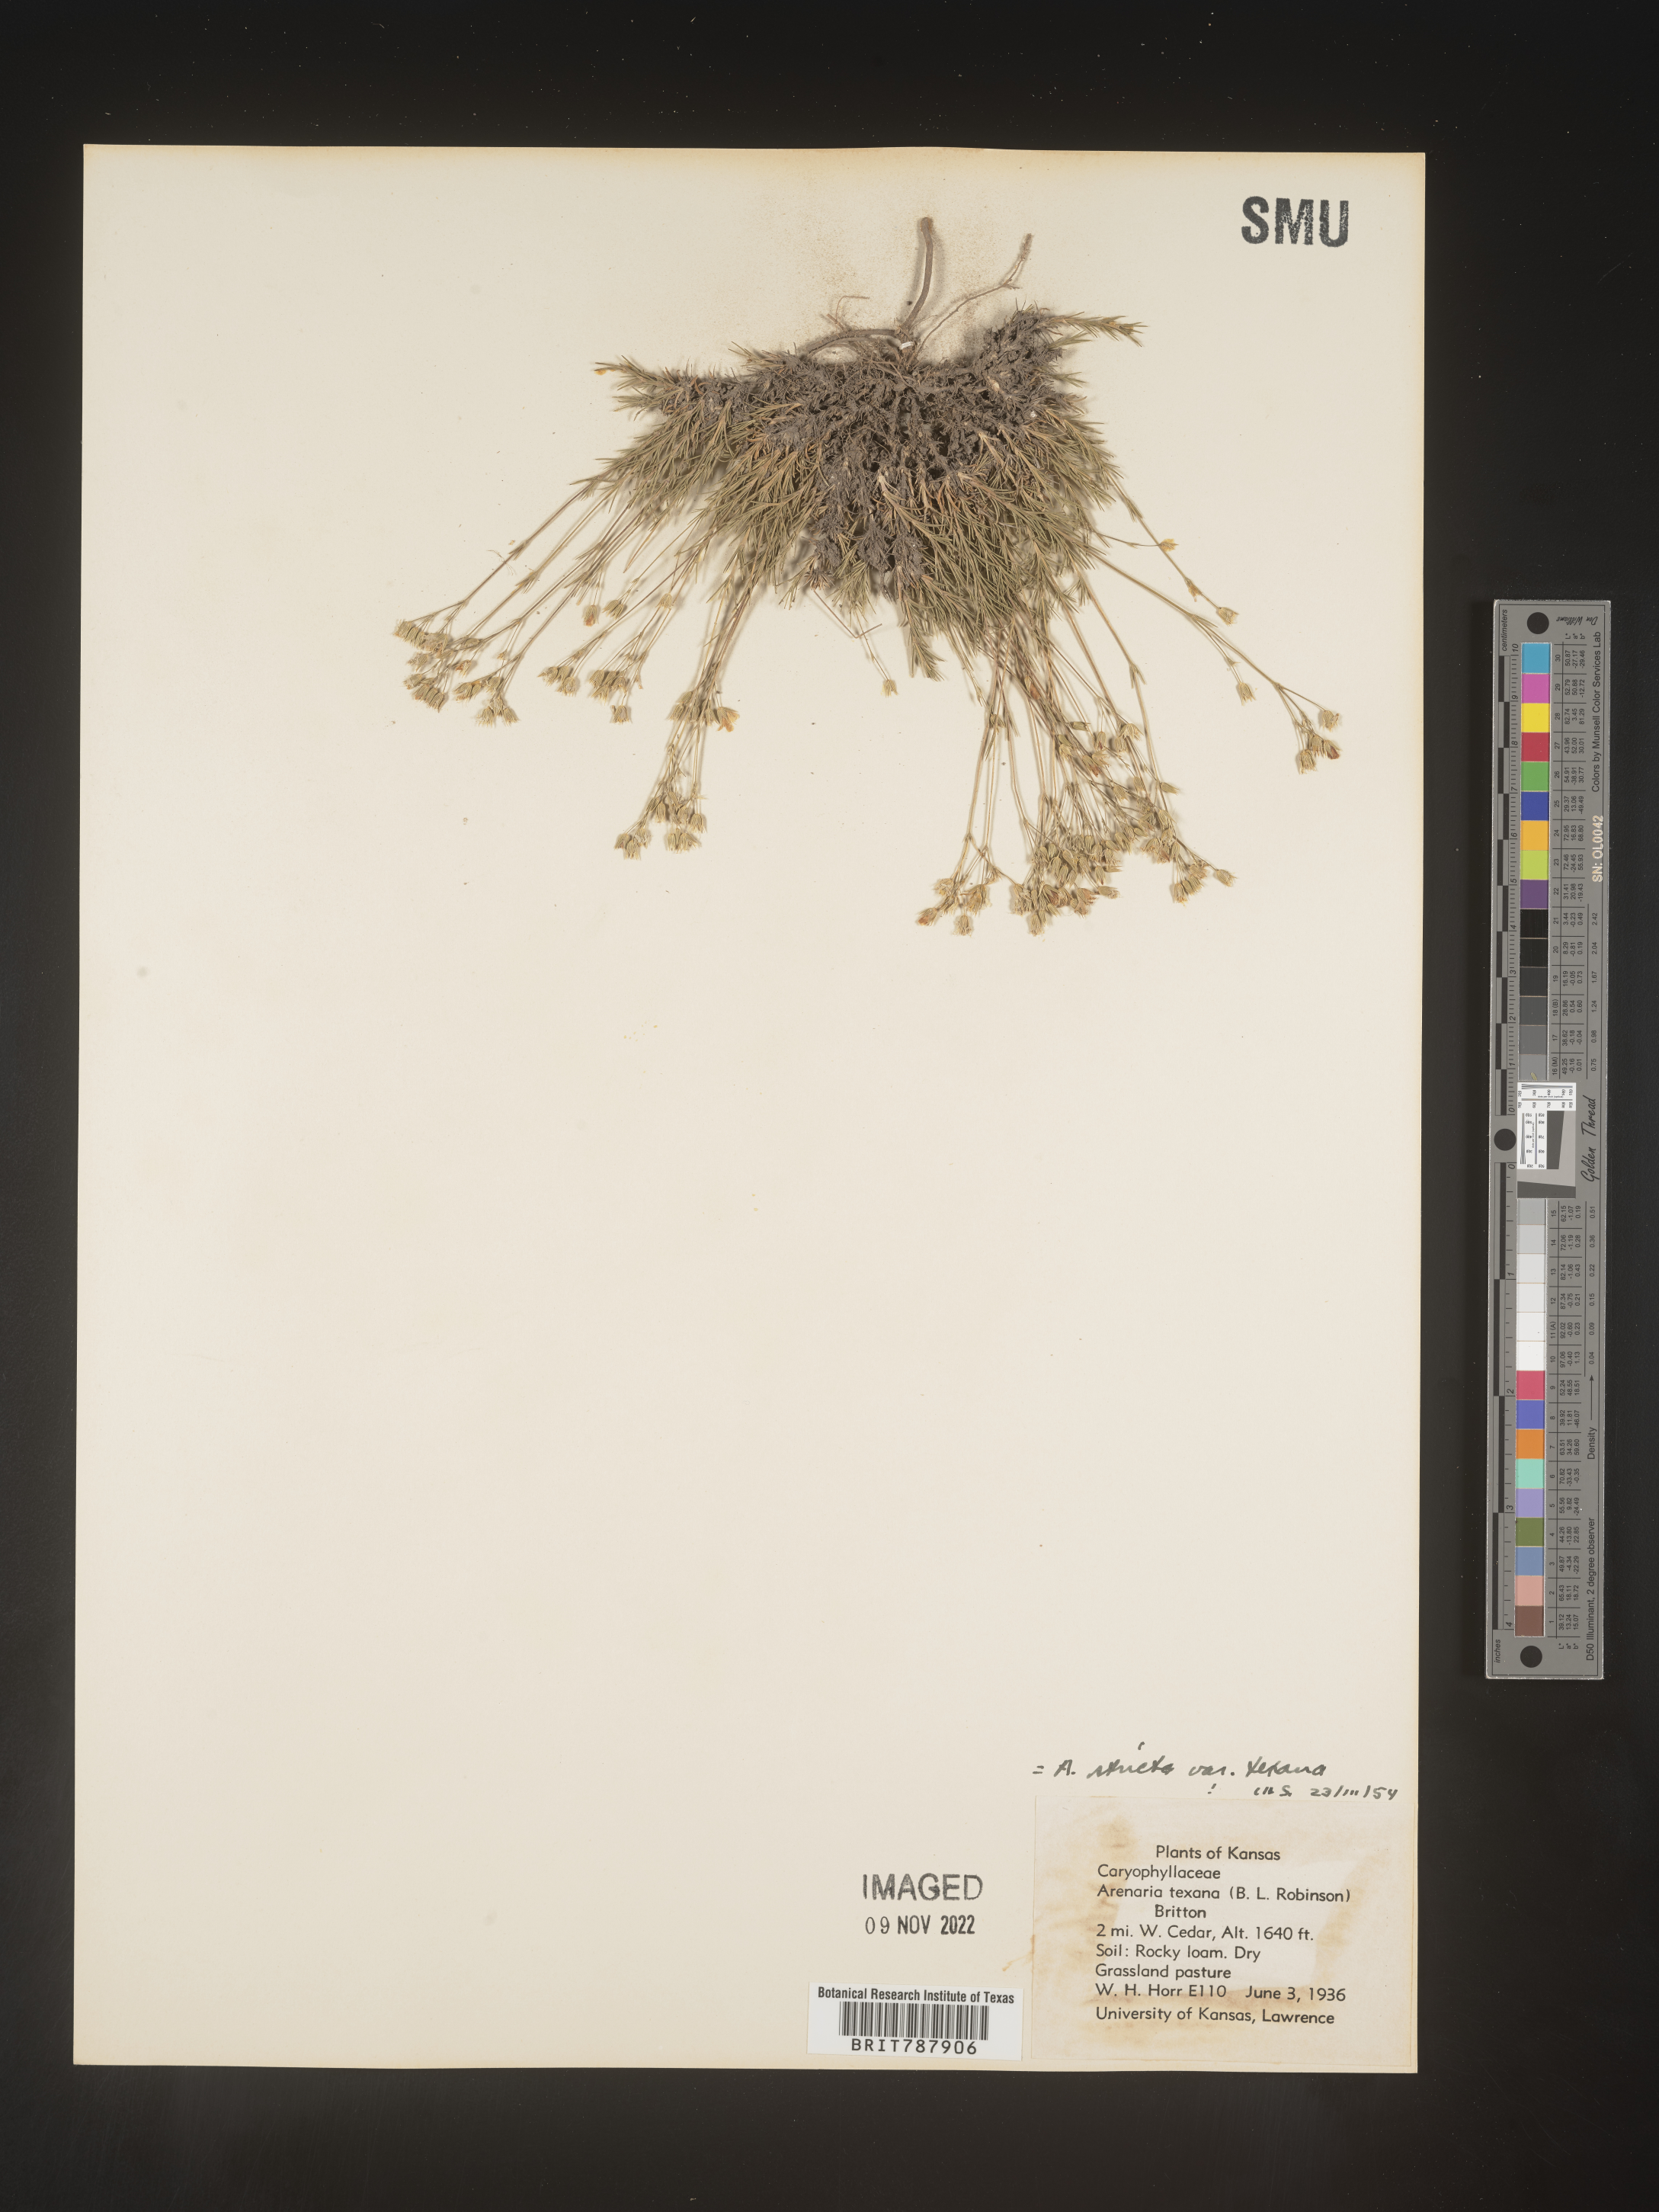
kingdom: Plantae
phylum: Tracheophyta
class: Magnoliopsida
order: Caryophyllales
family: Caryophyllaceae
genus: Sabulina
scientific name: Sabulina michauxii
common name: Michaux's stitchwort
